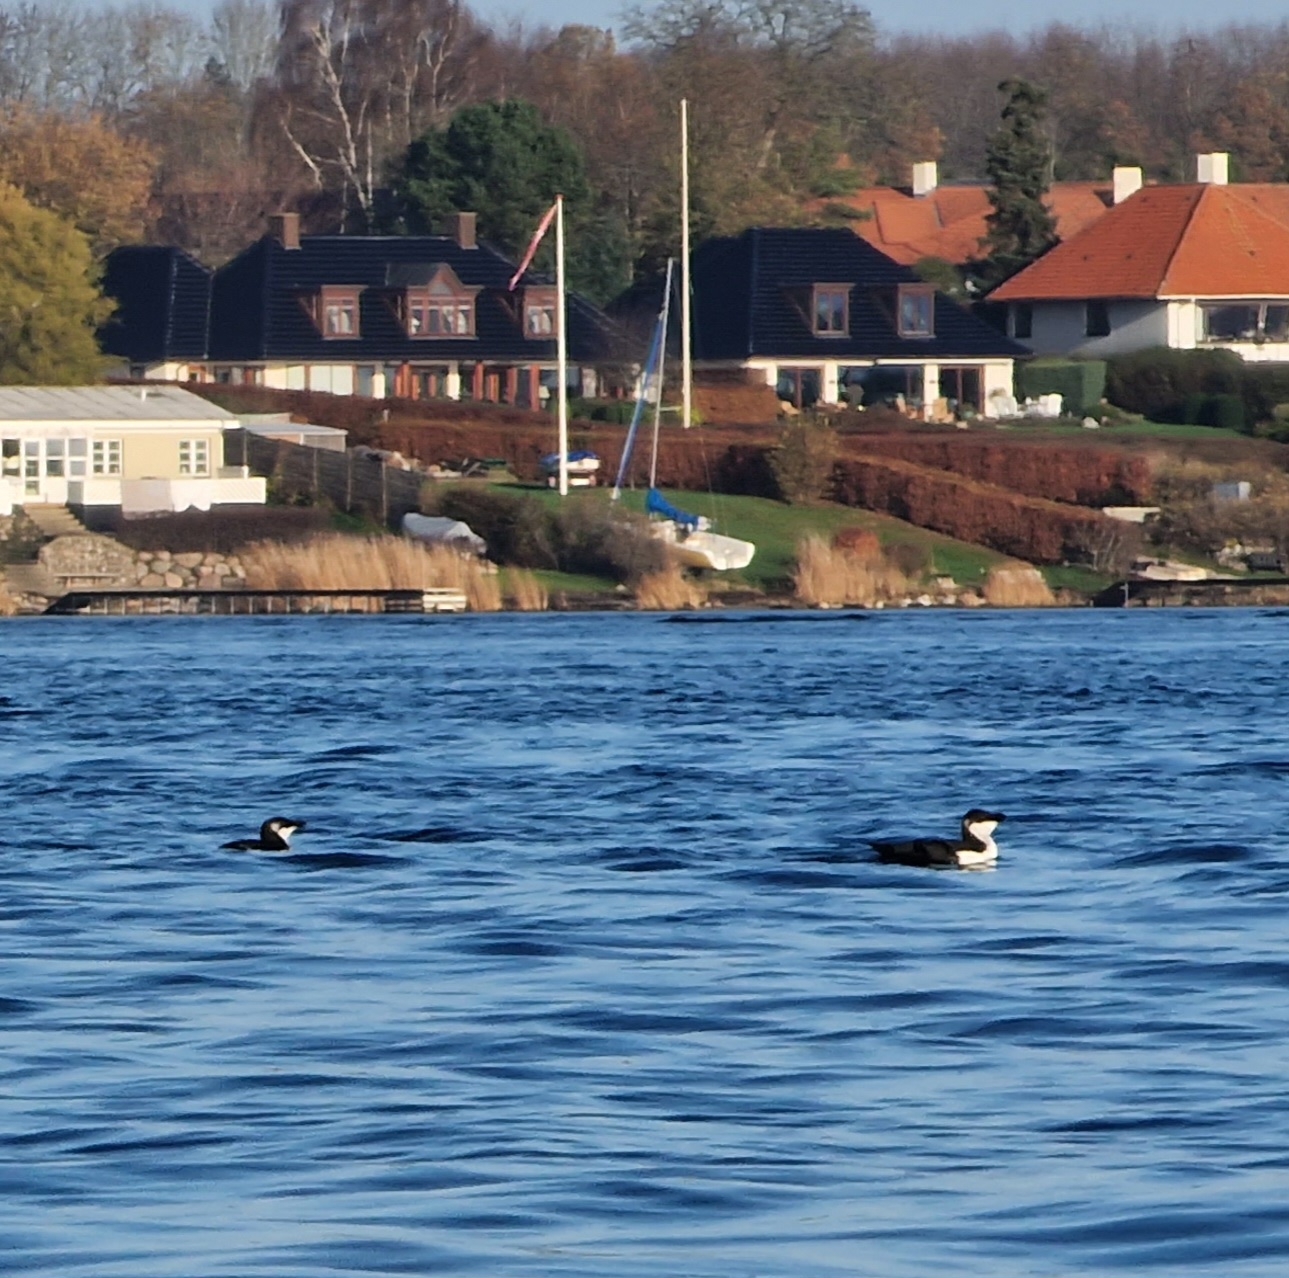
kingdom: Animalia
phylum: Chordata
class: Aves
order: Charadriiformes
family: Alcidae
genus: Alca
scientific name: Alca torda
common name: Alk
